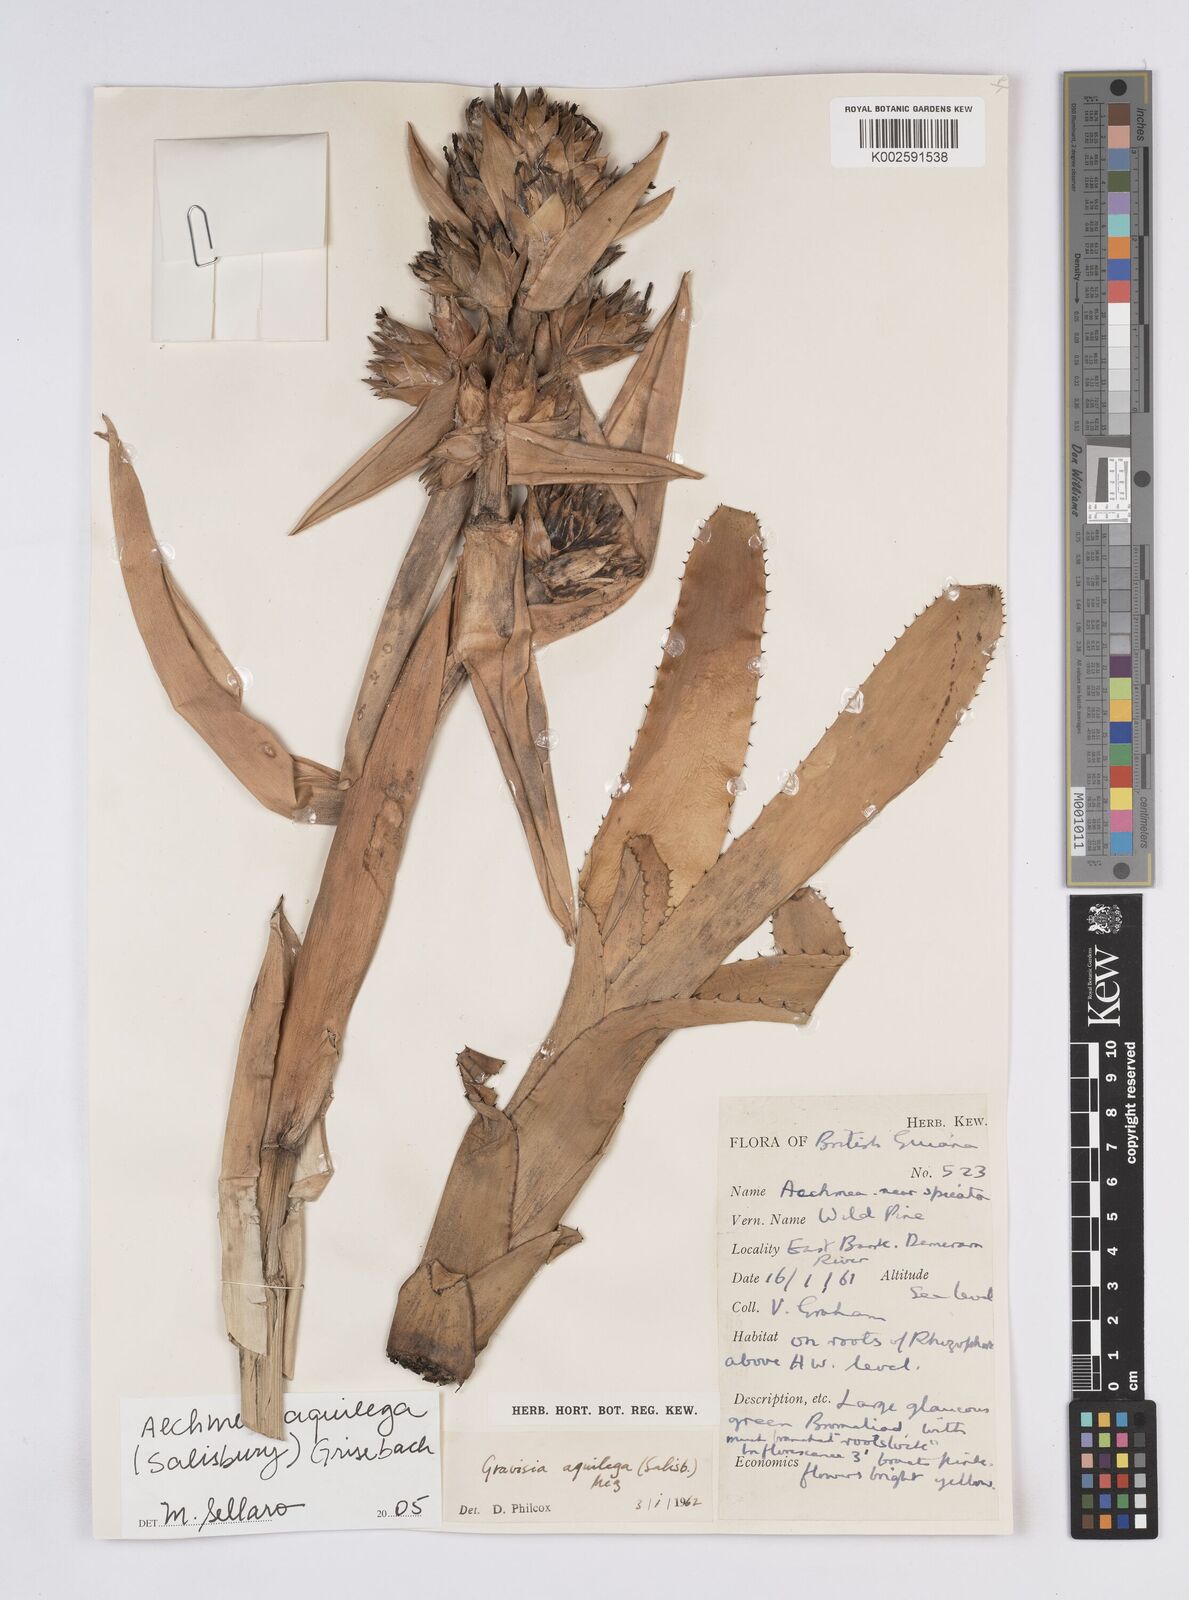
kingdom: Plantae
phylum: Tracheophyta
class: Liliopsida
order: Poales
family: Bromeliaceae
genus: Aechmea
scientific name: Aechmea aquilega
